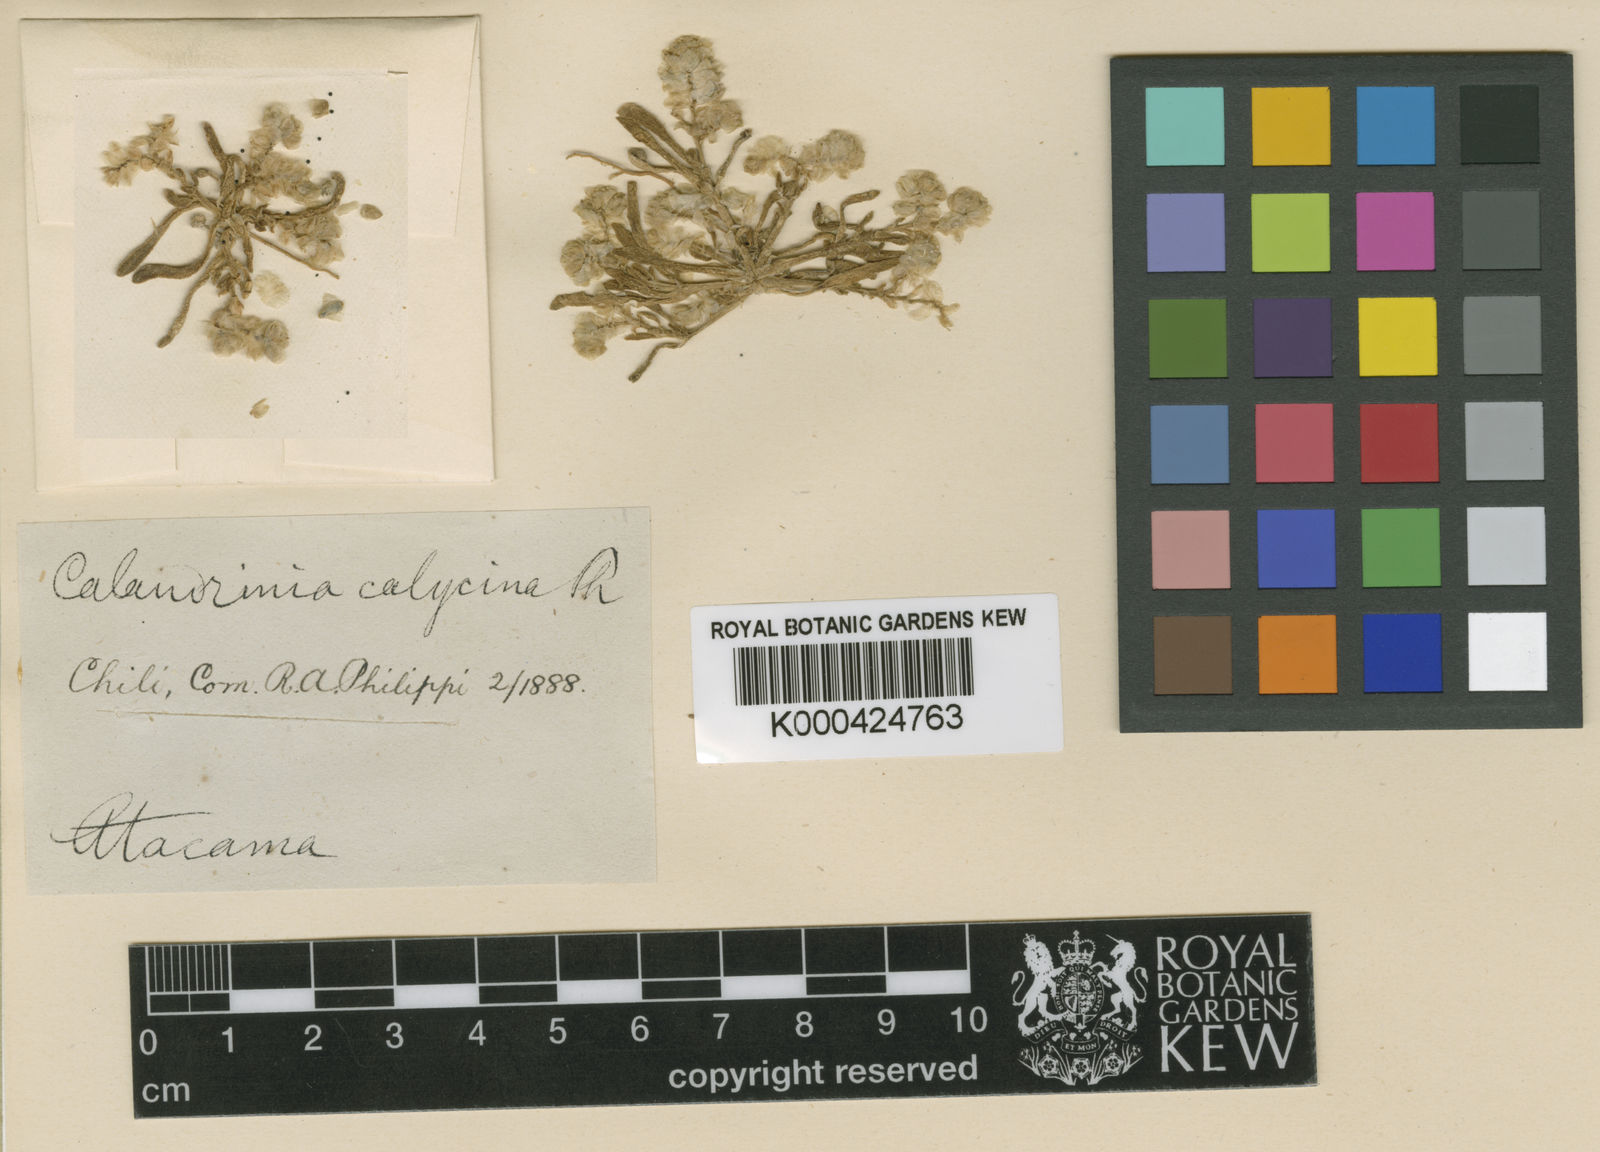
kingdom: Plantae
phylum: Tracheophyta
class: Magnoliopsida
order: Caryophyllales
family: Montiaceae
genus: Philippiamra
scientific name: Philippiamra calycina
